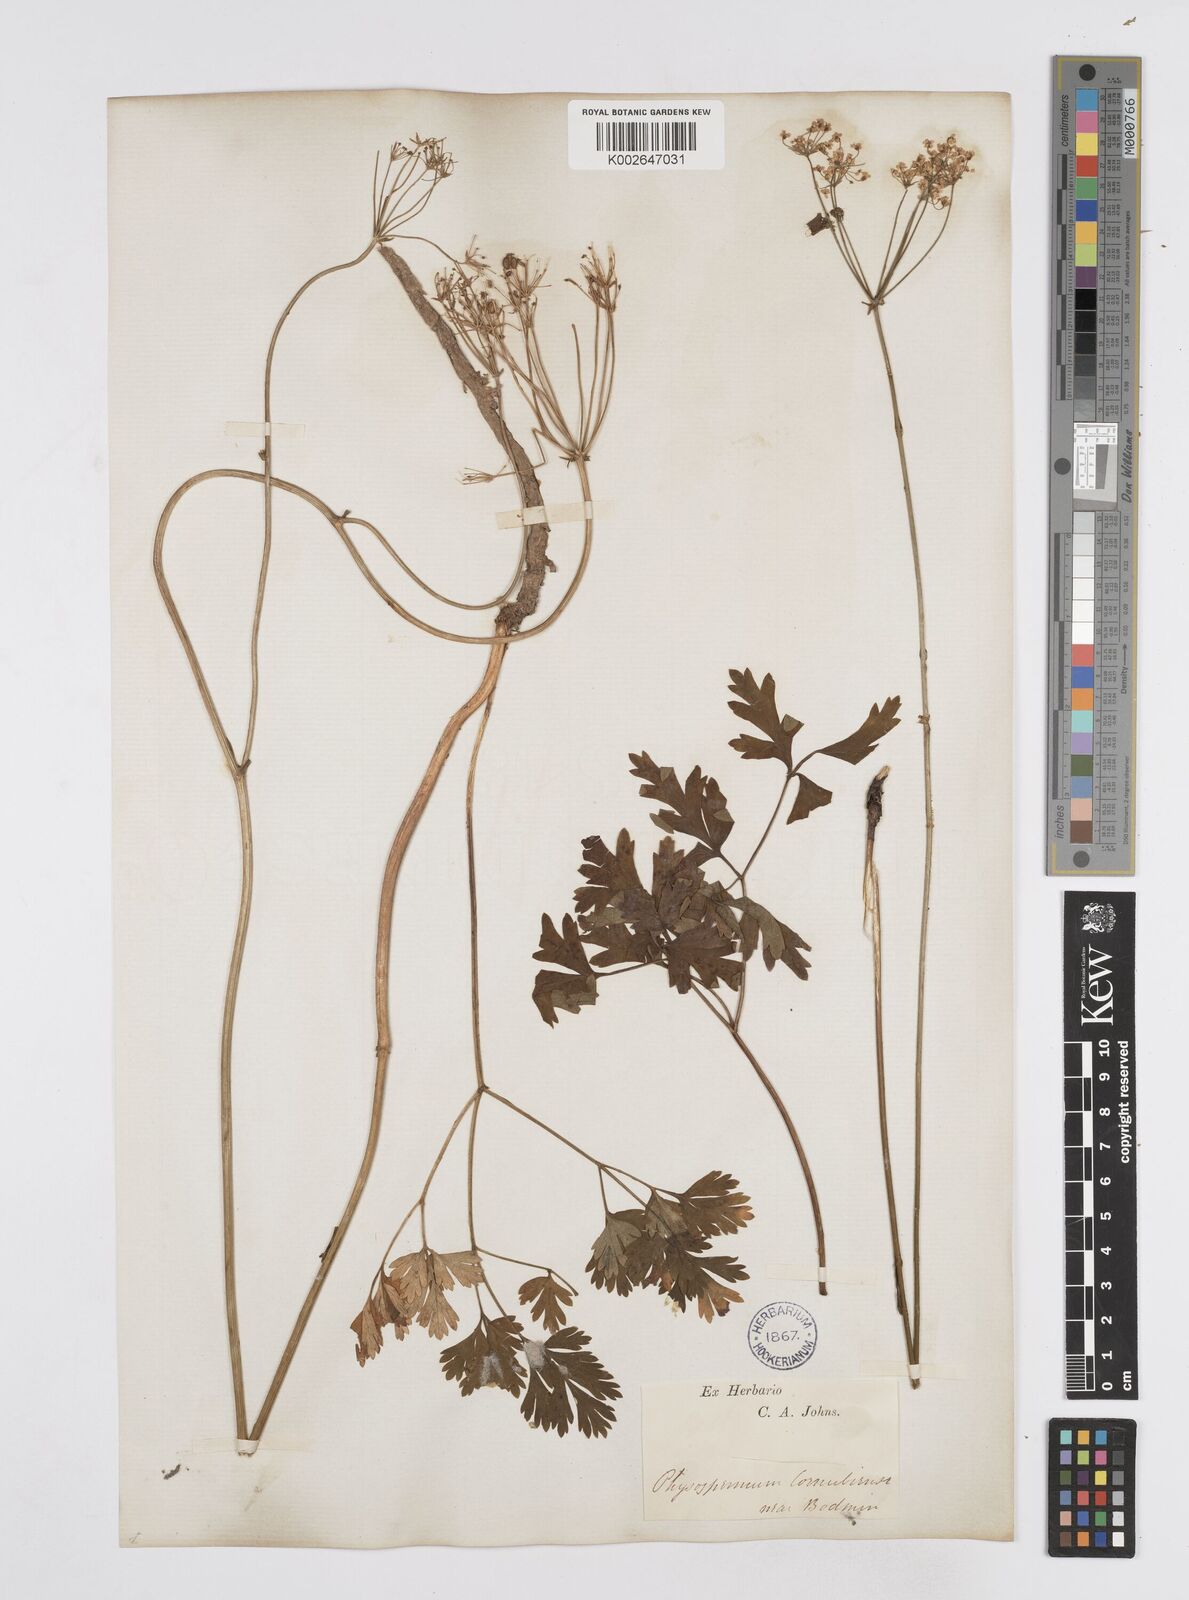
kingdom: Plantae
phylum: Tracheophyta
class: Magnoliopsida
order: Apiales
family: Apiaceae
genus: Physospermum
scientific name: Physospermum cornubiense
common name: Bladderseed
